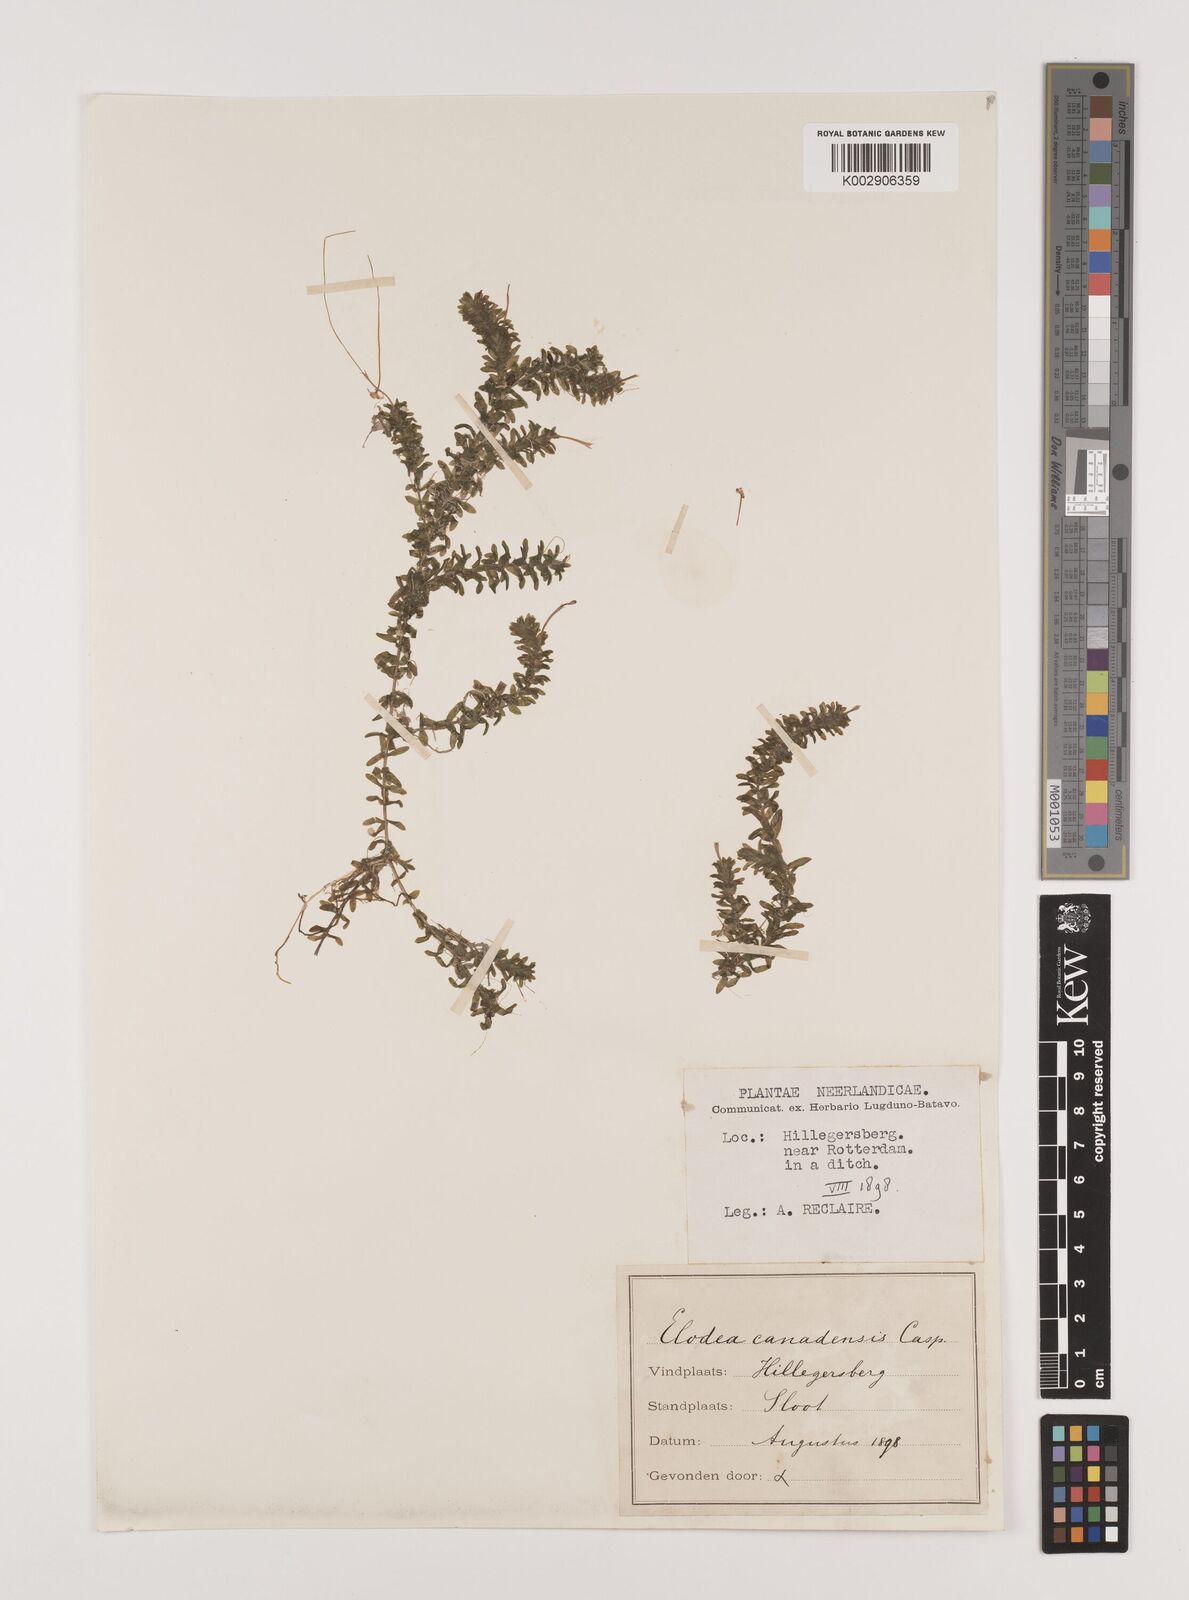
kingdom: Plantae
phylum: Tracheophyta
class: Liliopsida
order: Alismatales
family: Hydrocharitaceae
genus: Elodea
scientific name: Elodea canadensis
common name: Canadian waterweed
